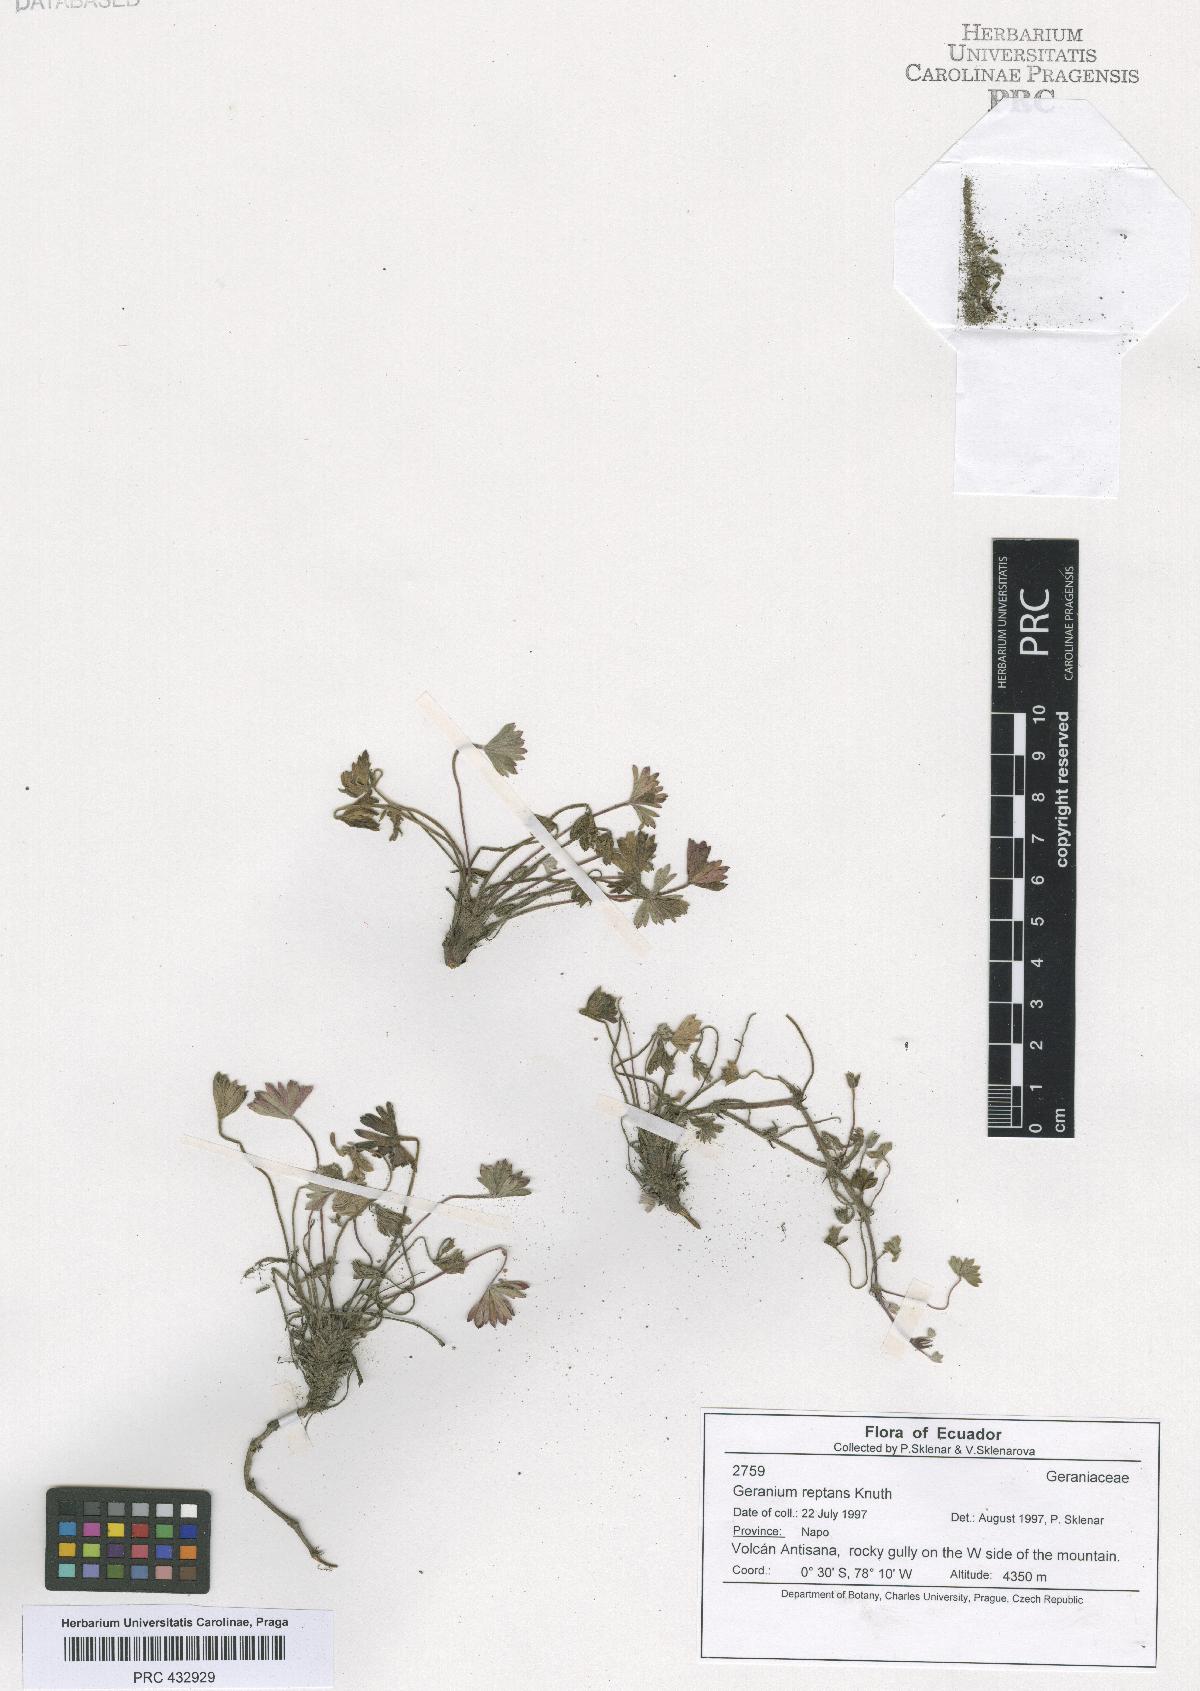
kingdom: Plantae
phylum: Tracheophyta
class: Magnoliopsida
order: Geraniales
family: Geraniaceae
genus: Geranium
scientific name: Geranium reptans
